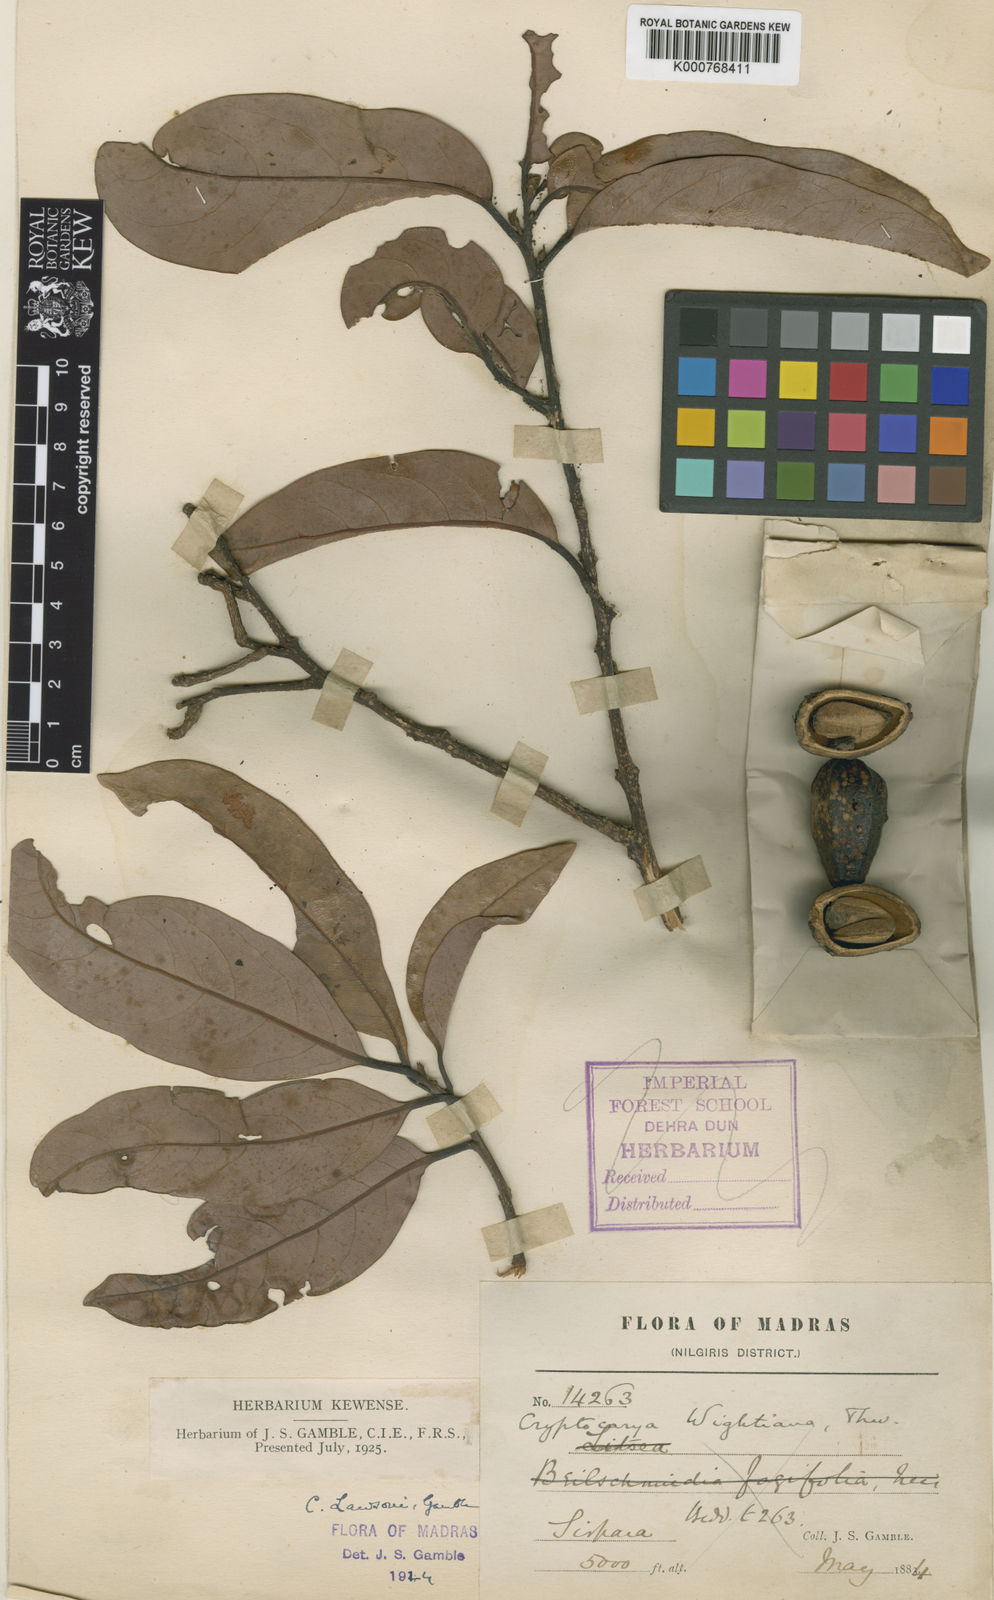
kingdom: Plantae
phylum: Tracheophyta
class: Magnoliopsida
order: Laurales
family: Lauraceae
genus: Cryptocarya
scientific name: Cryptocarya lawsonii
